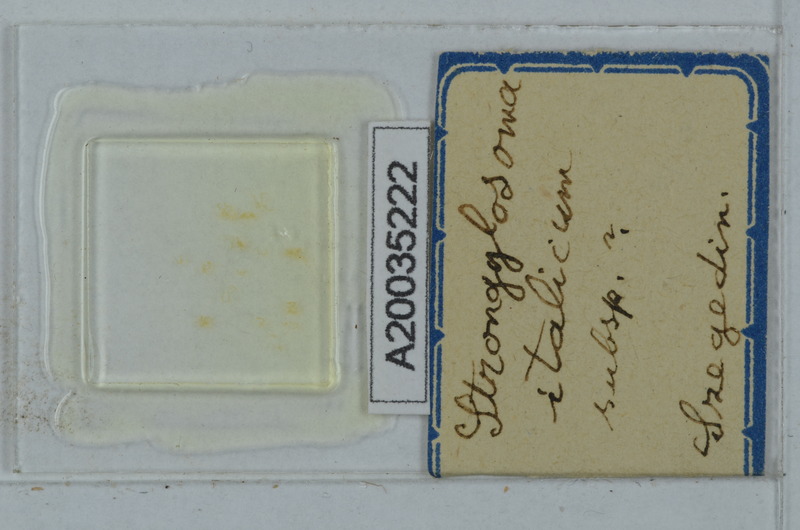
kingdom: Animalia
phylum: Arthropoda
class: Diplopoda
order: Polydesmida
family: Paradoxosomatidae
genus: Strongylosoma
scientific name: Strongylosoma italica
